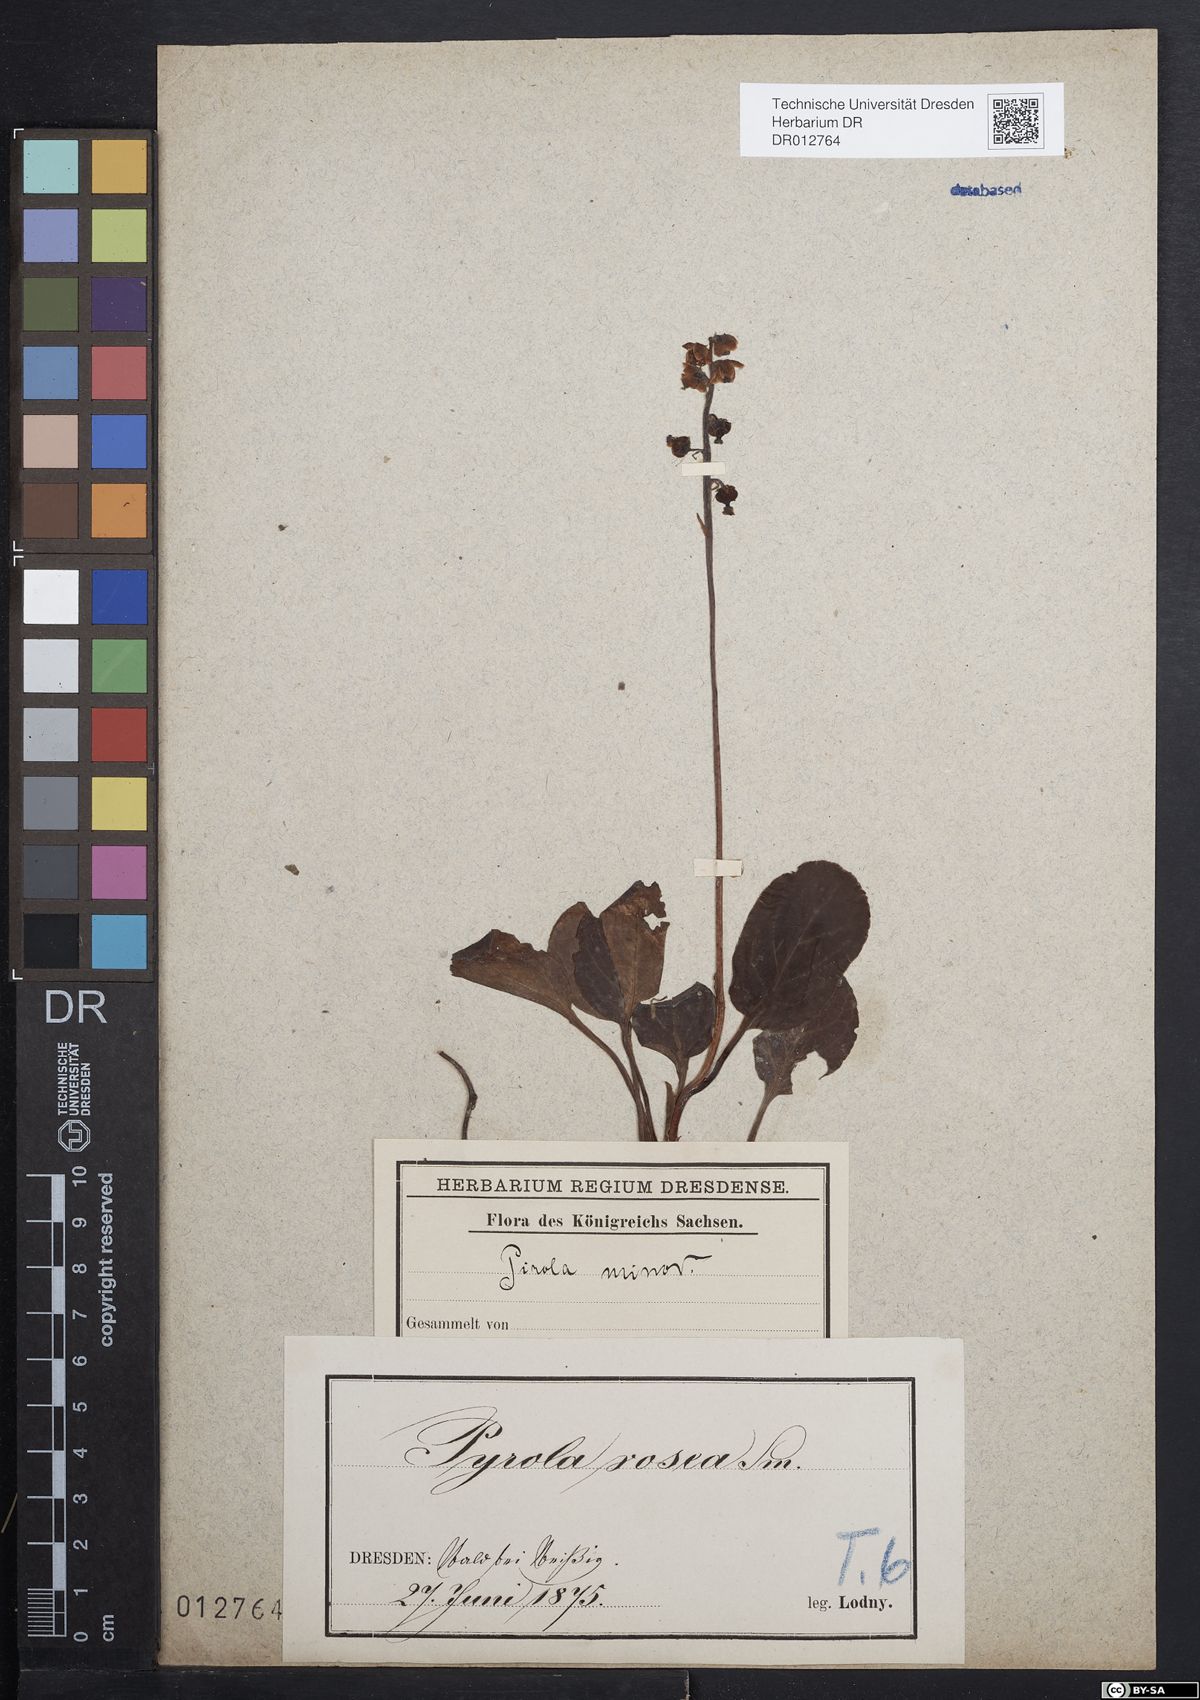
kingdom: Plantae
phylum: Tracheophyta
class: Magnoliopsida
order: Ericales
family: Ericaceae
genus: Pyrola
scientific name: Pyrola minor
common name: Common wintergreen
